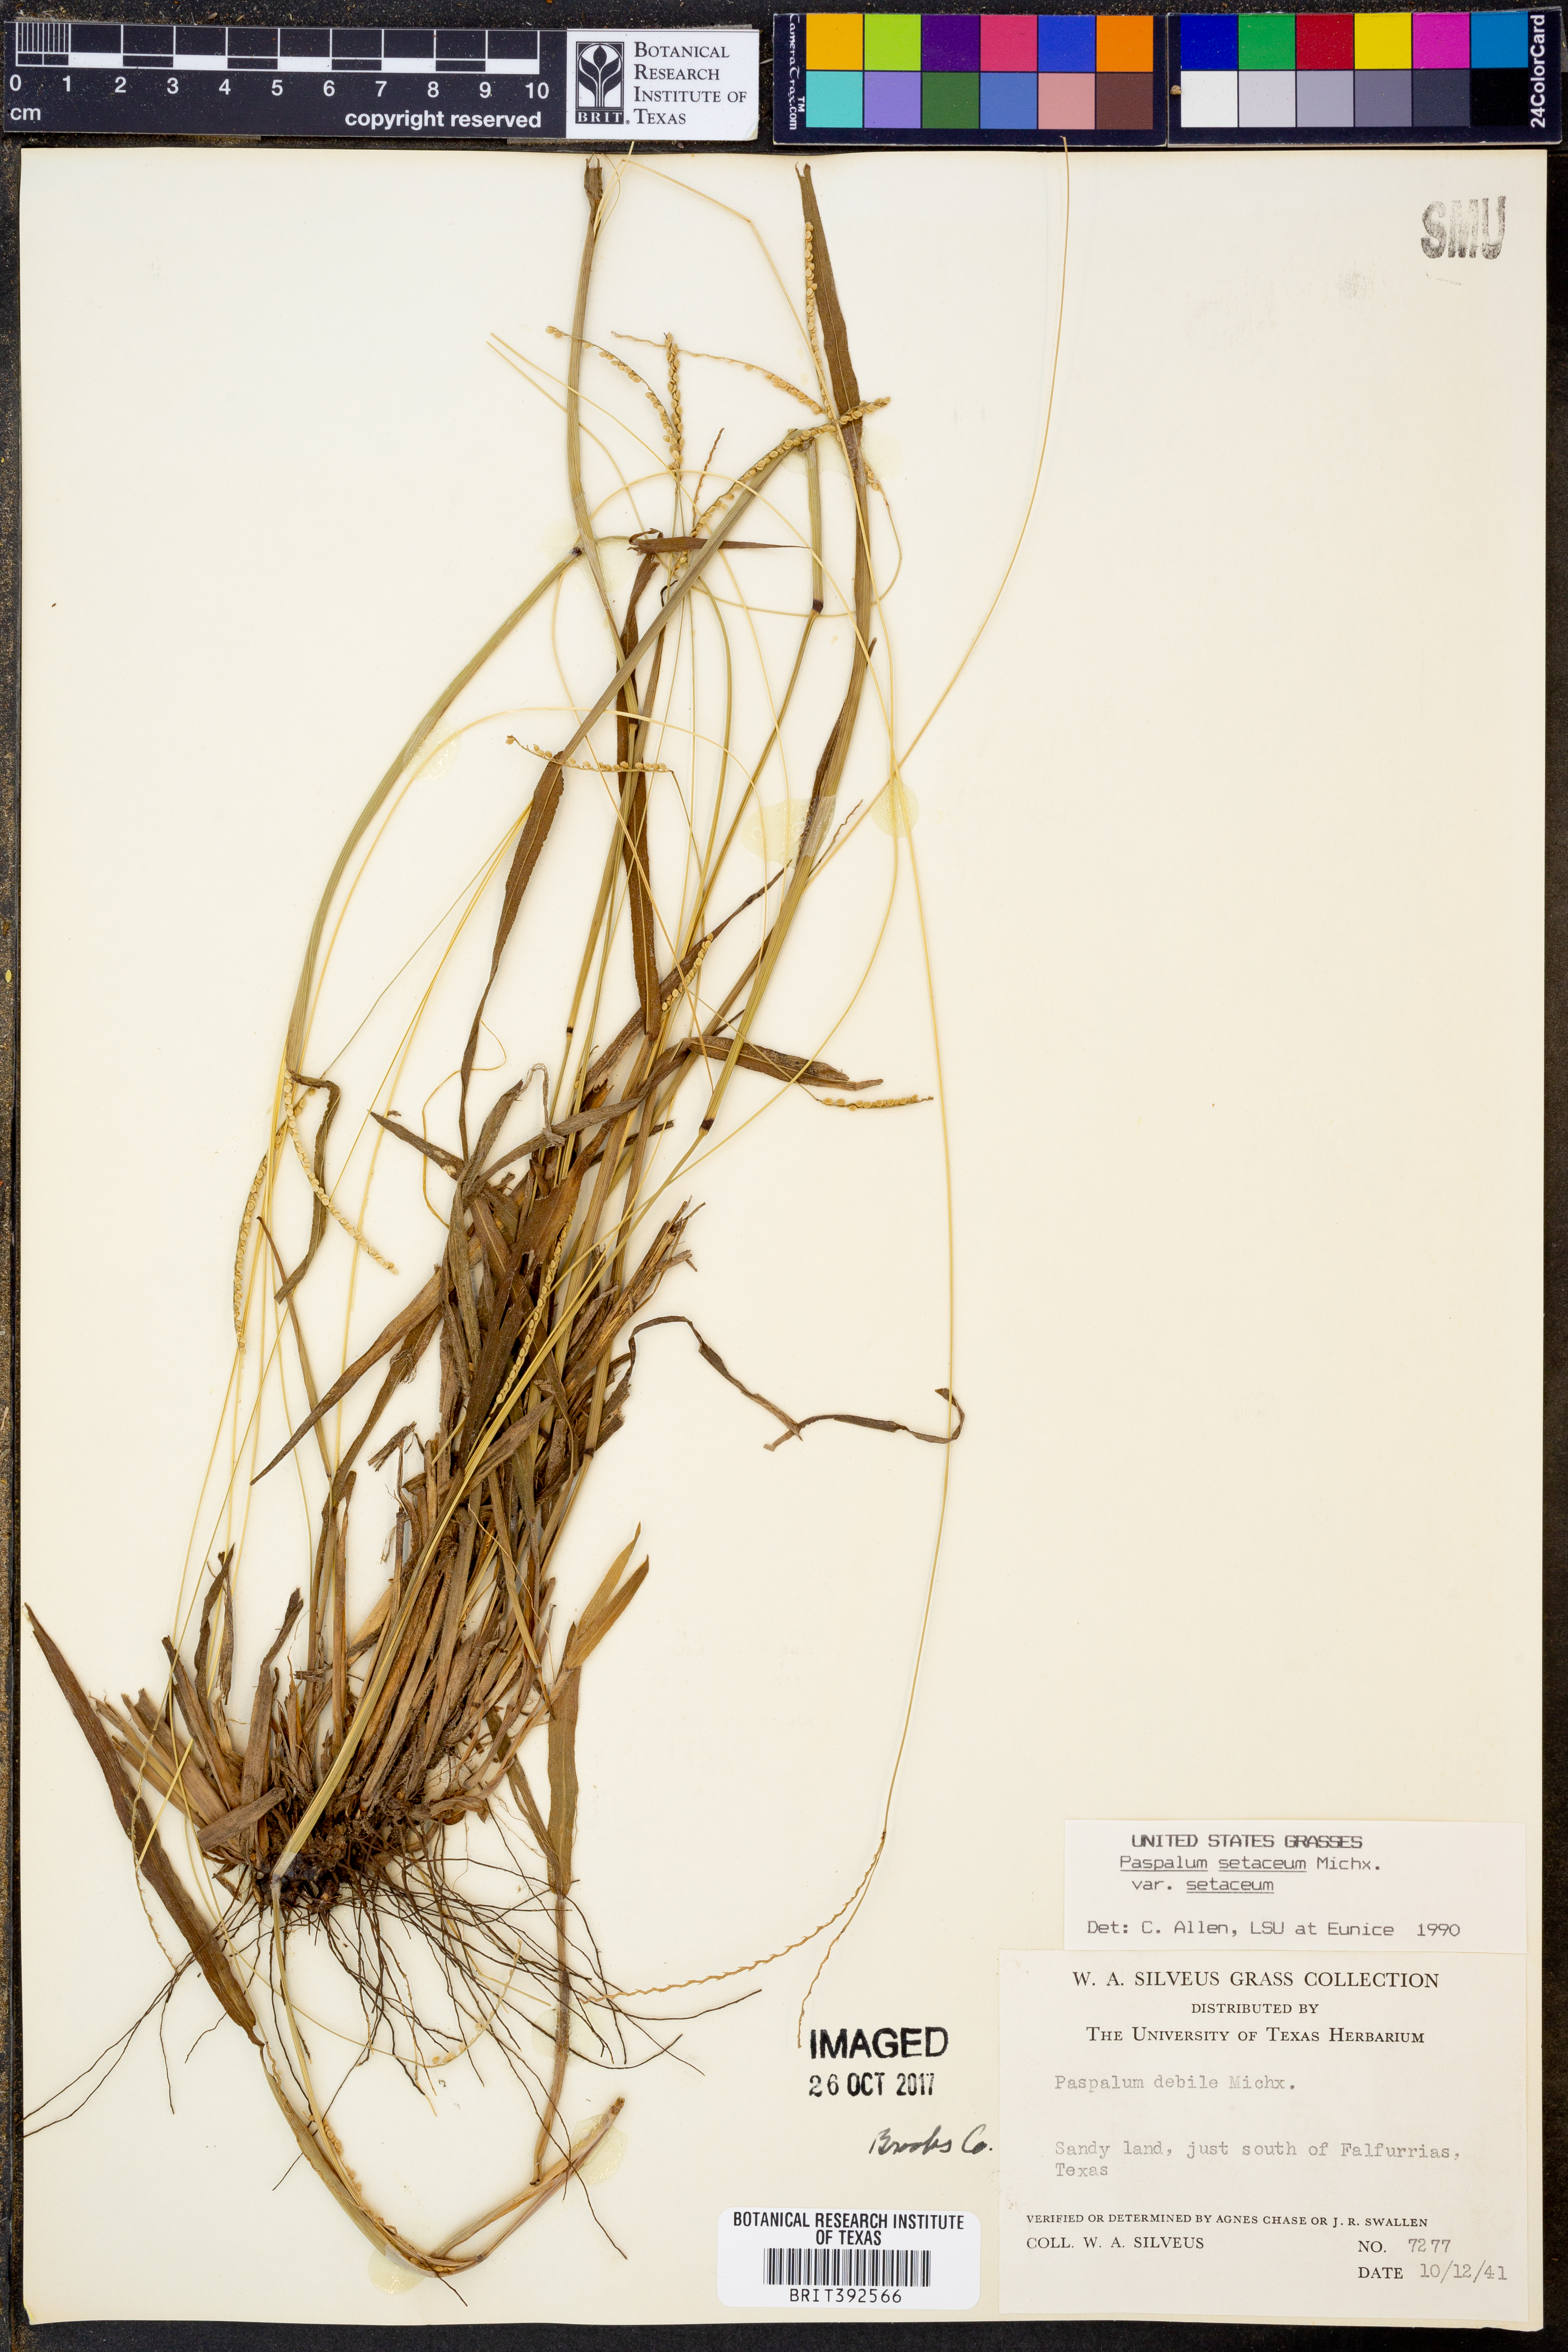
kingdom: Plantae
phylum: Tracheophyta
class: Liliopsida
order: Poales
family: Poaceae
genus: Paspalum
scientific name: Paspalum setaceum
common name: Slender paspalum
